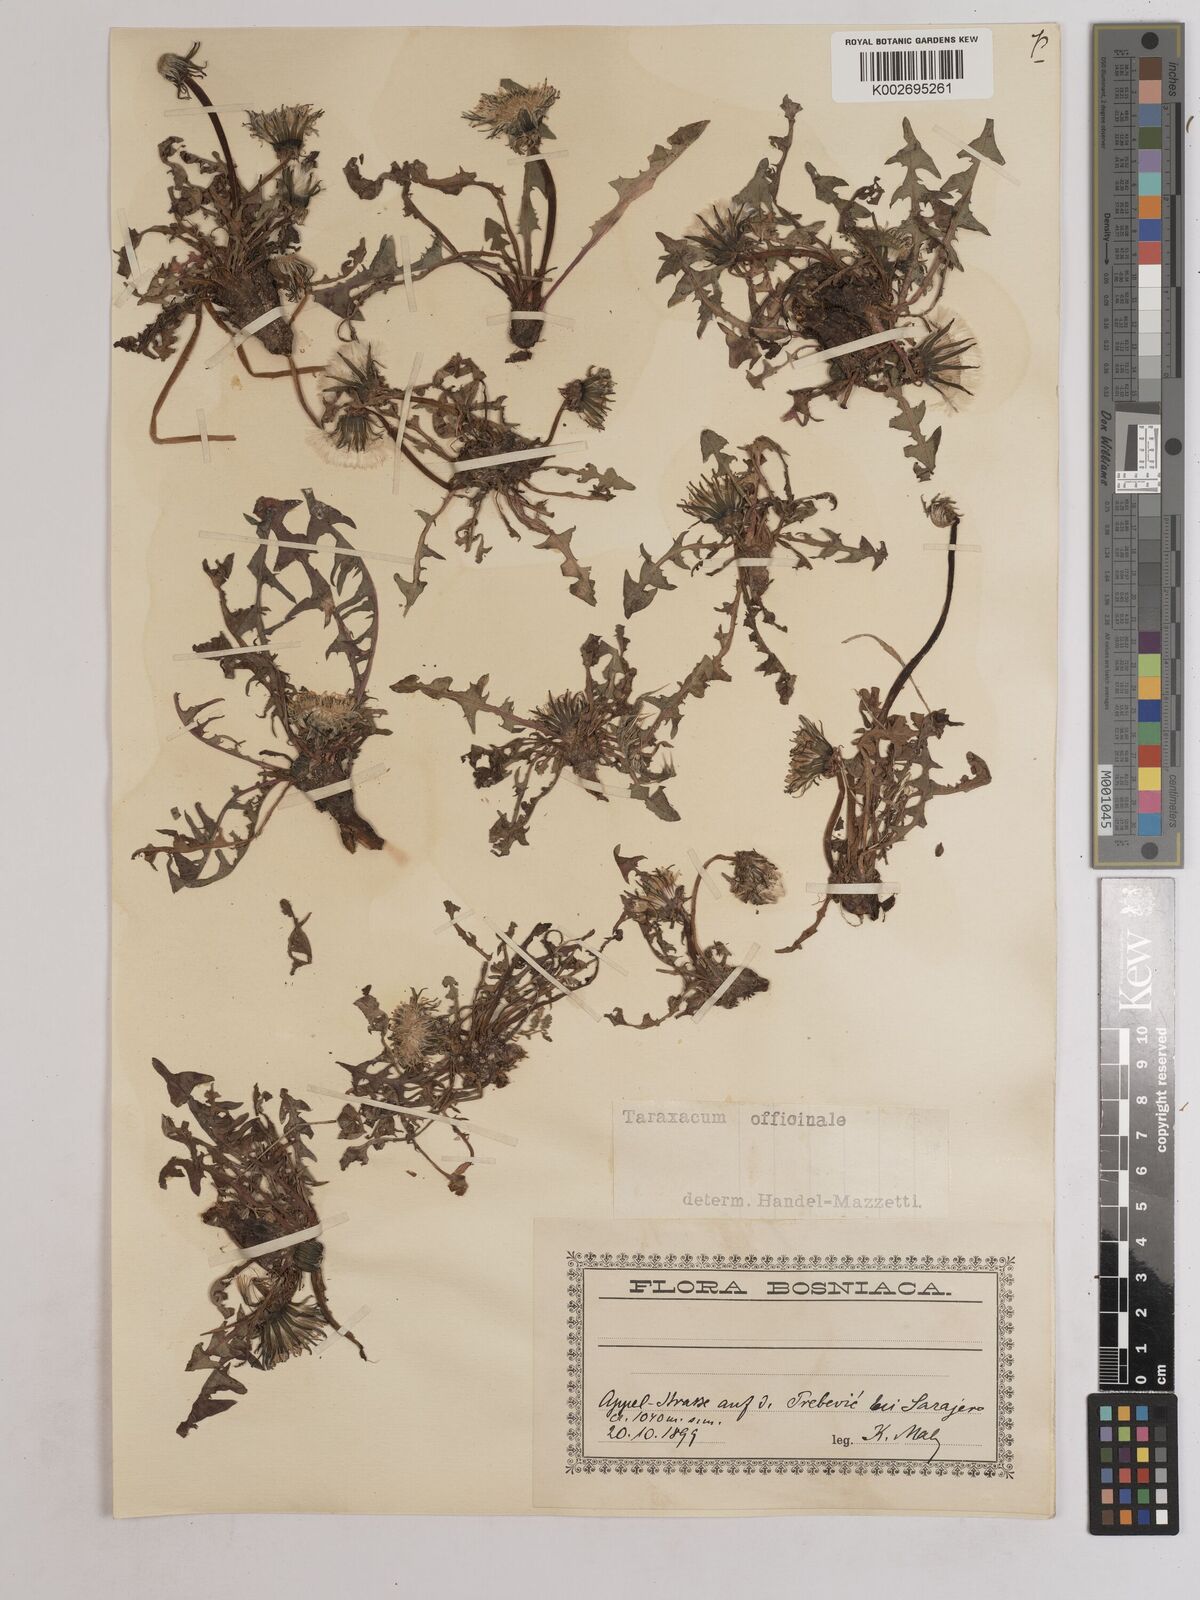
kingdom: Plantae
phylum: Tracheophyta
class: Magnoliopsida
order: Asterales
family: Asteraceae
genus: Taraxacum
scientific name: Taraxacum officinale
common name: Common dandelion
